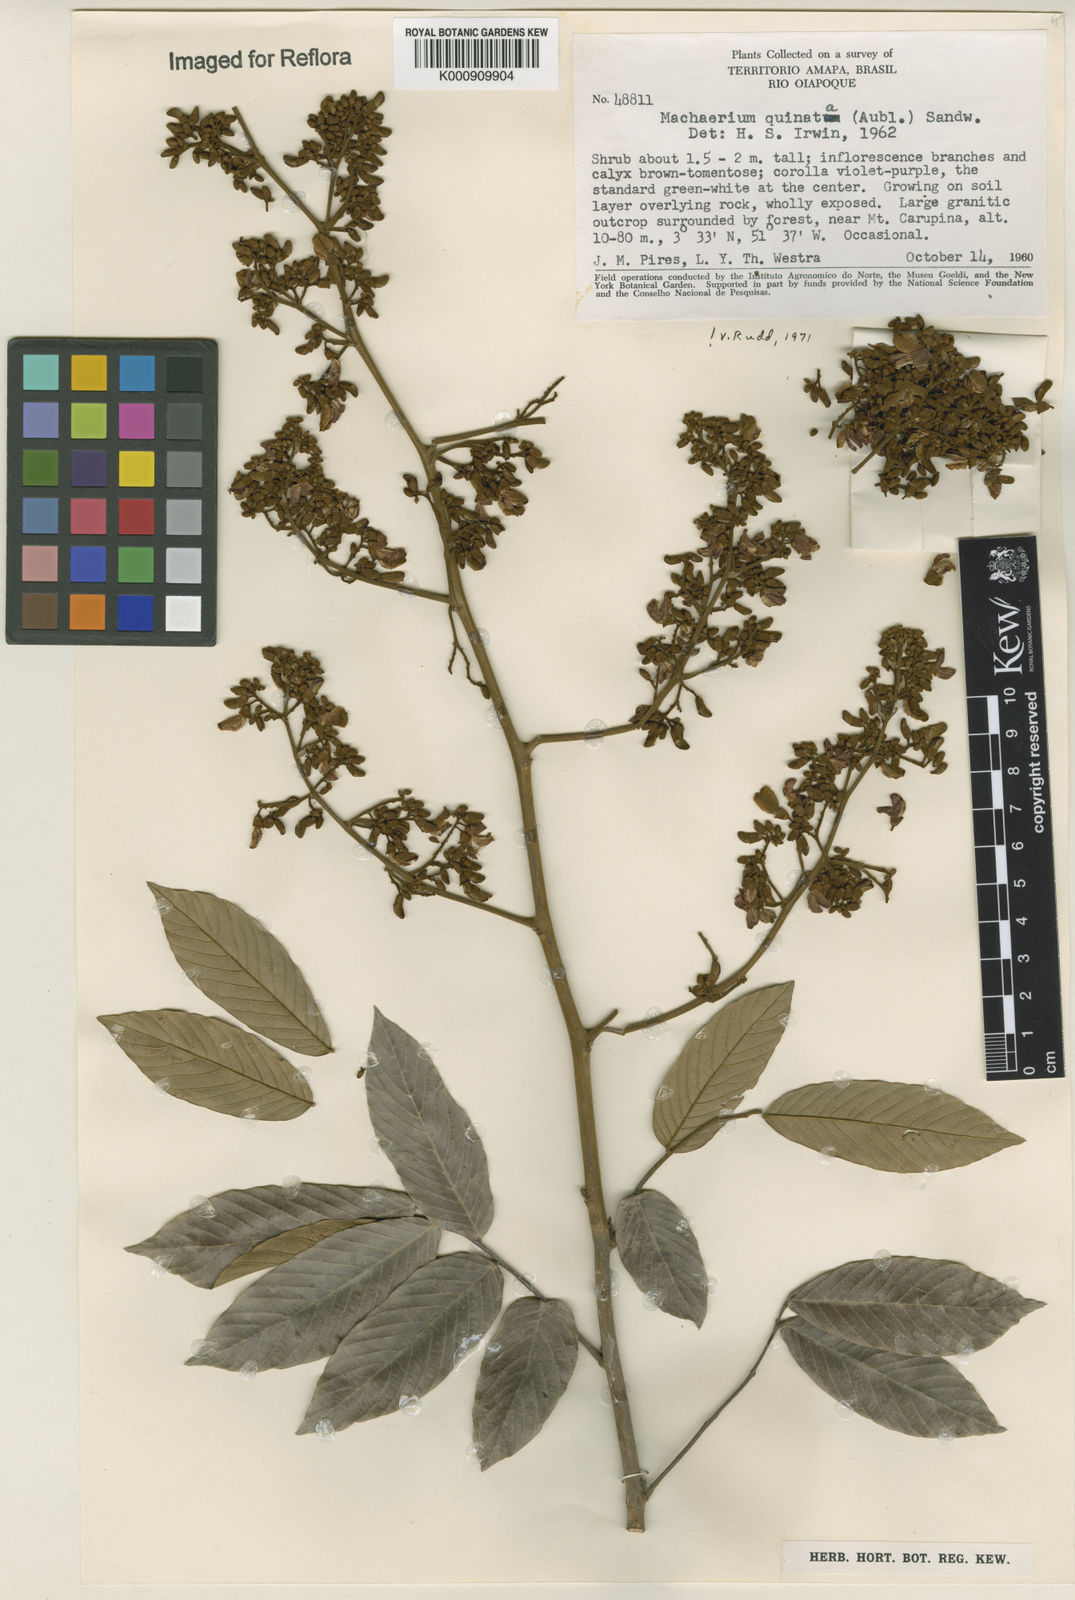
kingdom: Plantae
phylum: Tracheophyta
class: Magnoliopsida
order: Fabales
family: Fabaceae
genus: Machaerium
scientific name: Machaerium quinata
